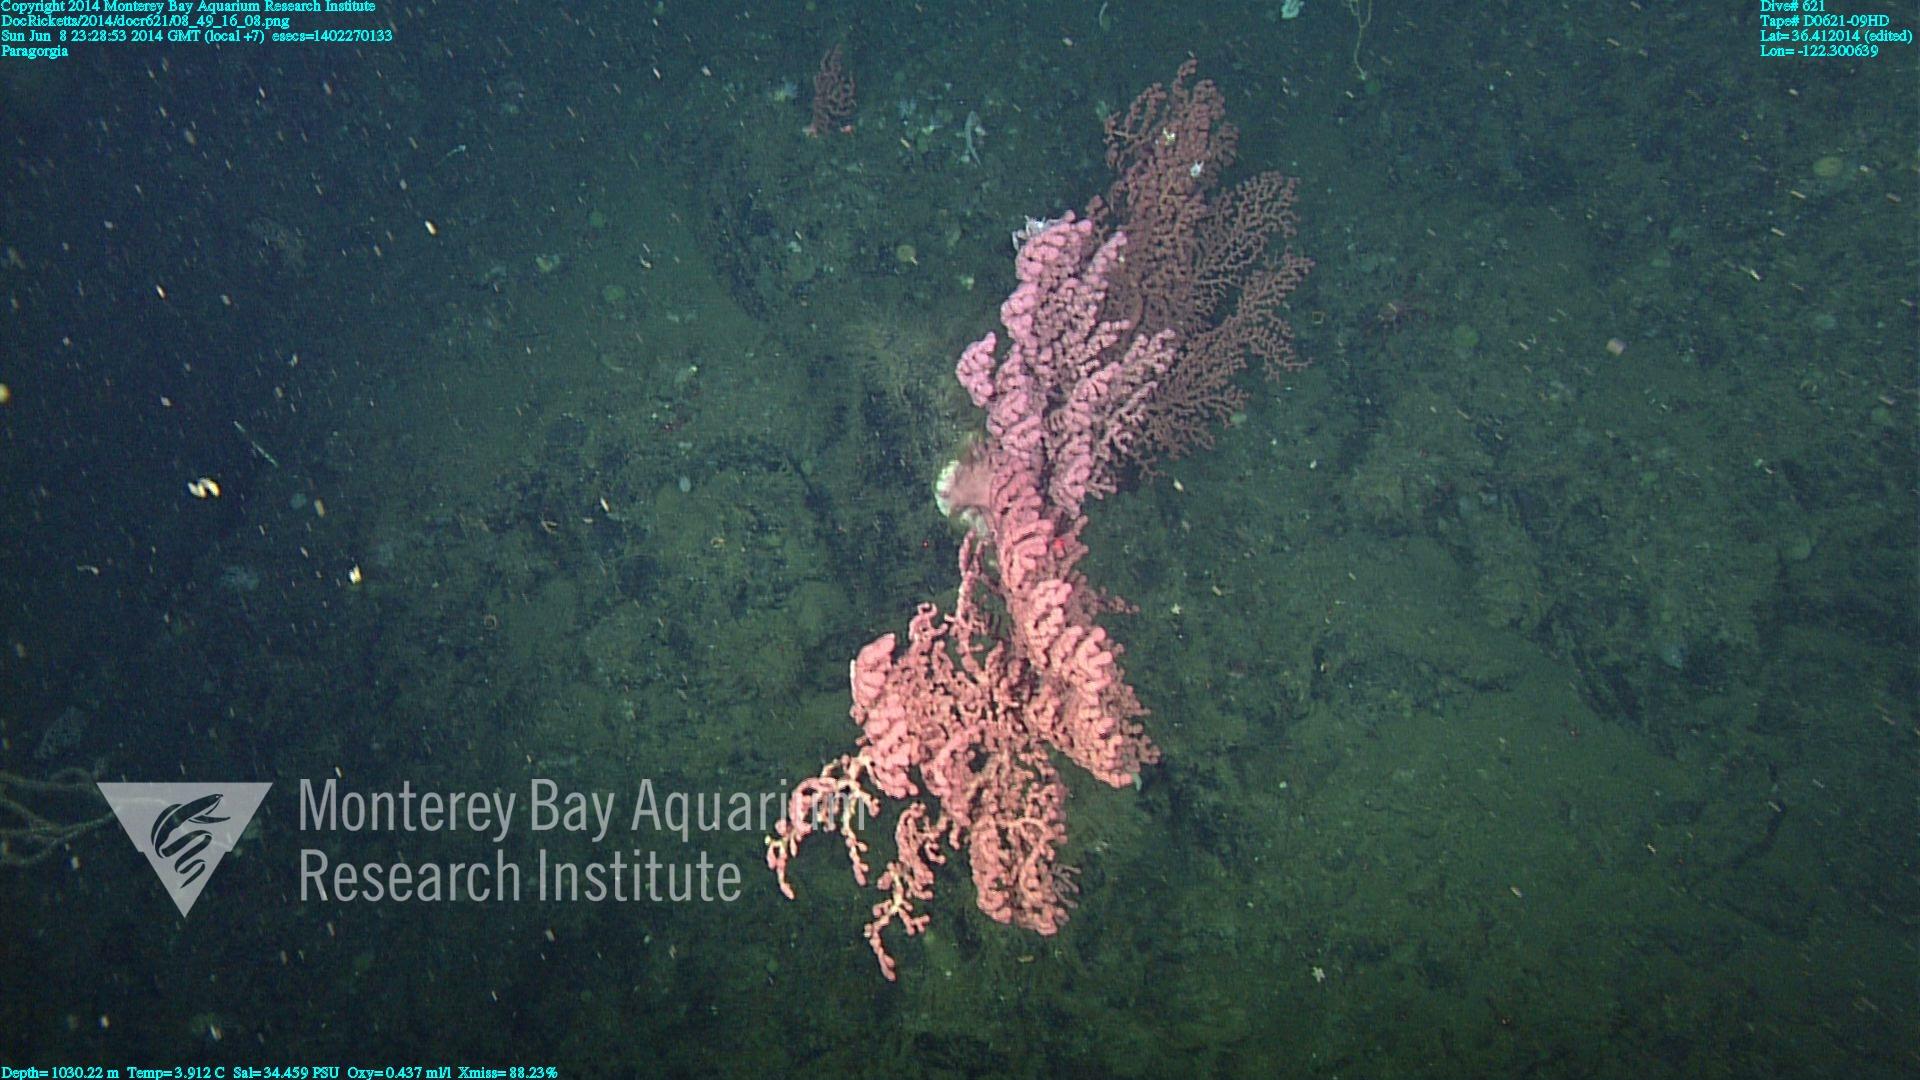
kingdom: Animalia
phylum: Cnidaria
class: Anthozoa
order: Scleralcyonacea
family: Coralliidae
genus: Paragorgia
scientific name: Paragorgia arborea
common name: Bubble gum coral
